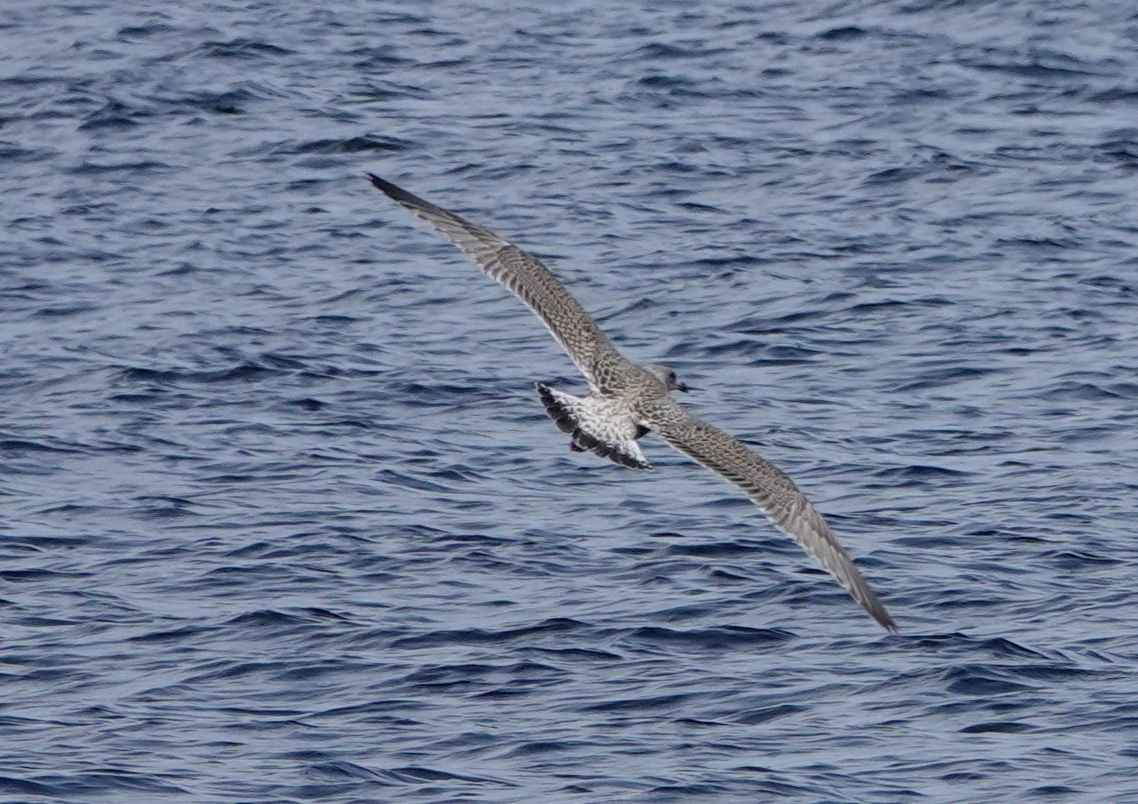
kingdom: Animalia
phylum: Chordata
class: Aves
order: Charadriiformes
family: Laridae
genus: Larus
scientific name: Larus marinus
